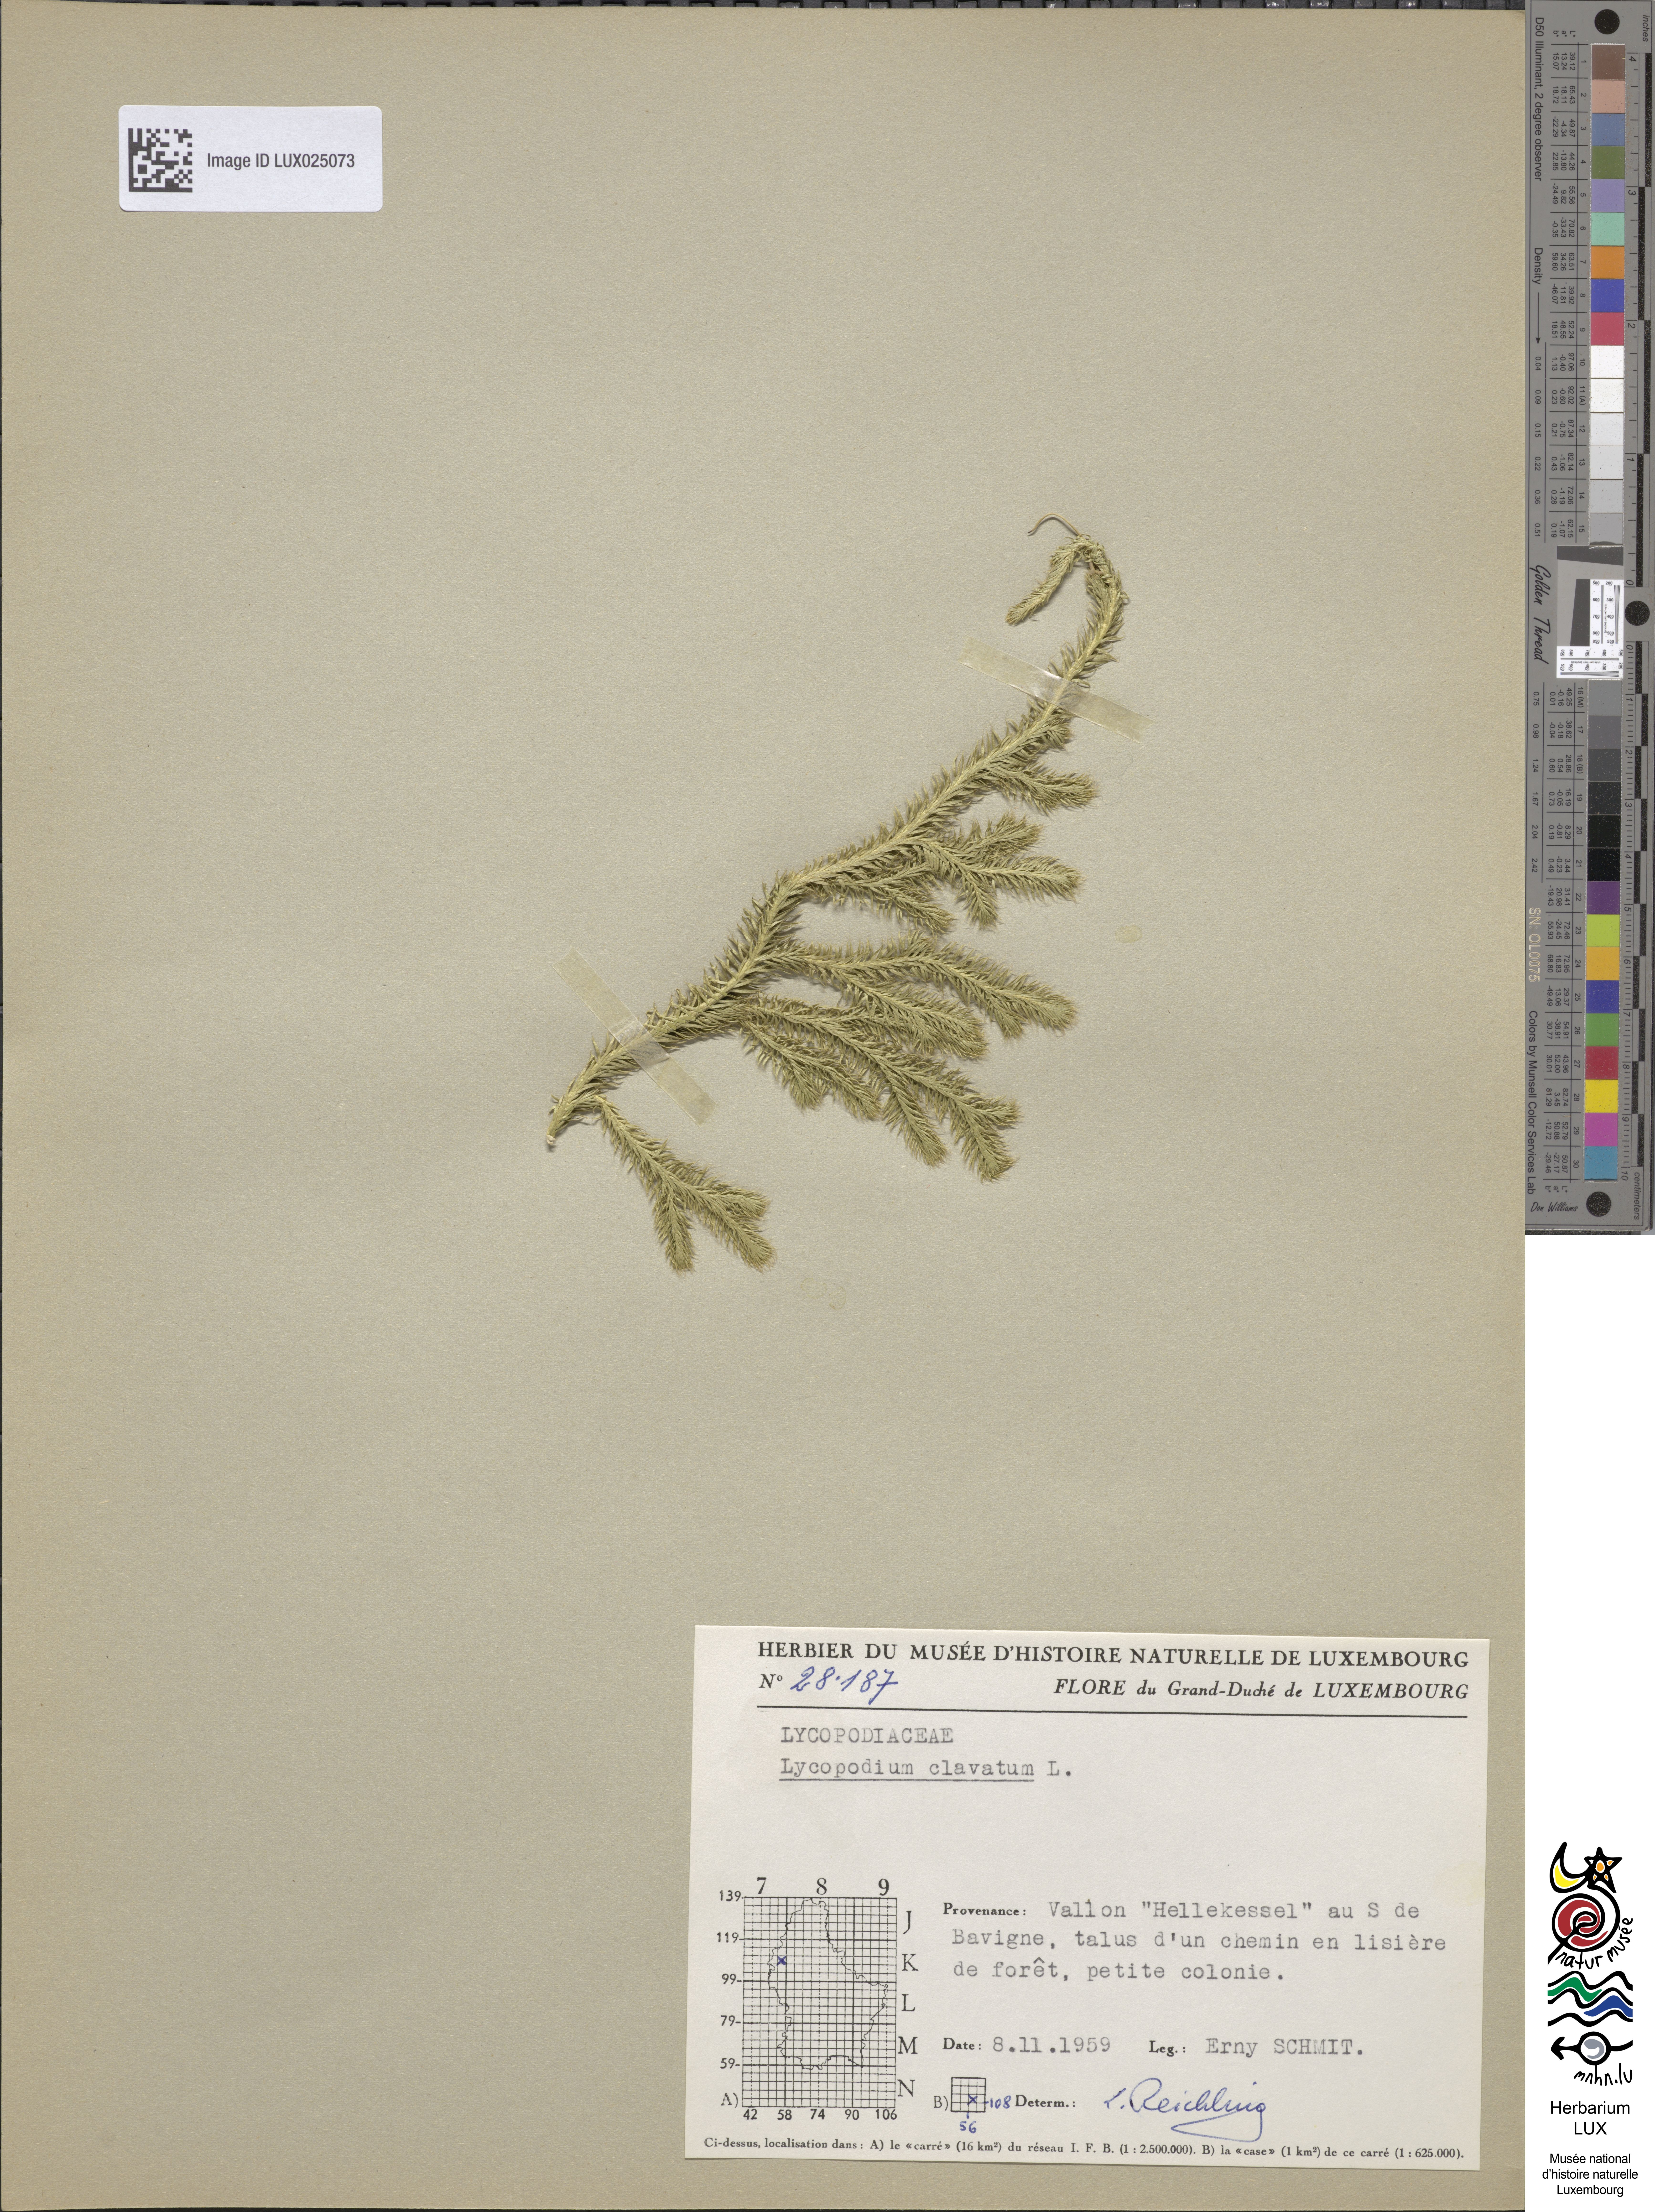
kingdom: Plantae
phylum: Tracheophyta
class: Lycopodiopsida
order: Lycopodiales
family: Lycopodiaceae
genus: Lycopodium
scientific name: Lycopodium clavatum
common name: Stag's-horn clubmoss
